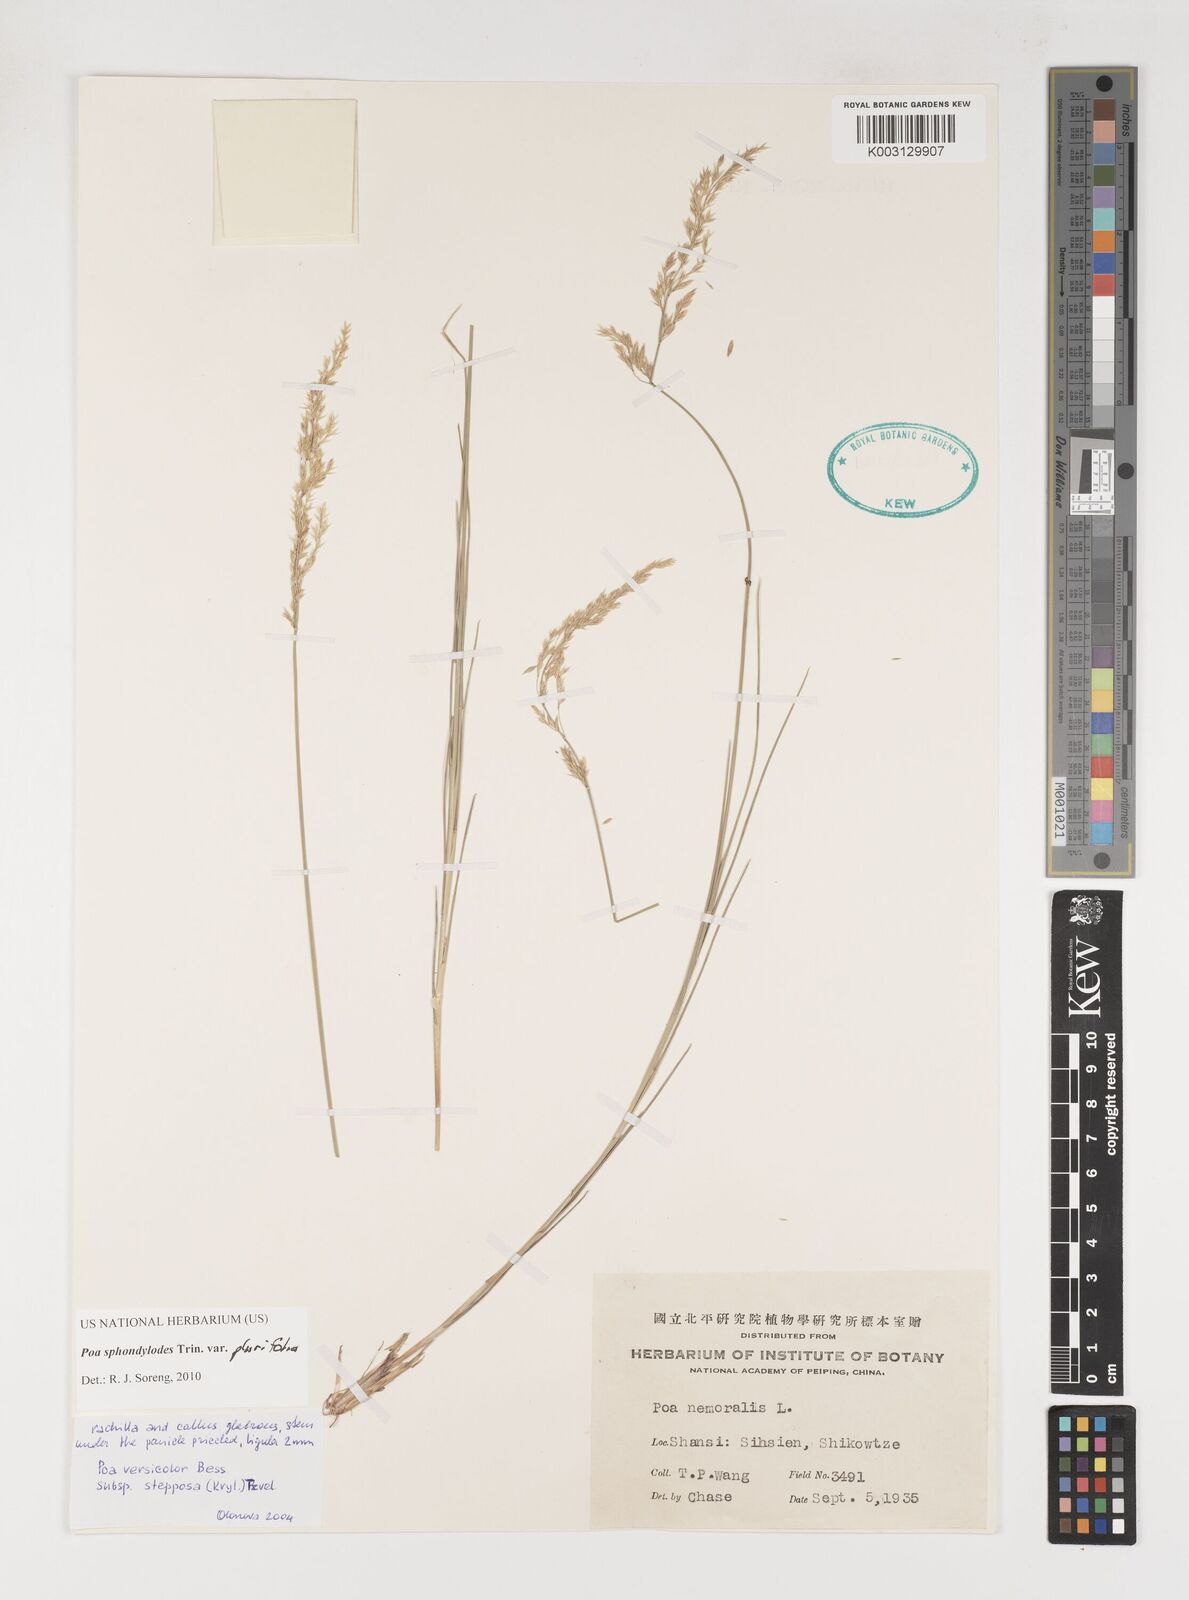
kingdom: Plantae
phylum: Tracheophyta
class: Liliopsida
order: Poales
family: Poaceae
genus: Poa
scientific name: Poa sphondylodes
